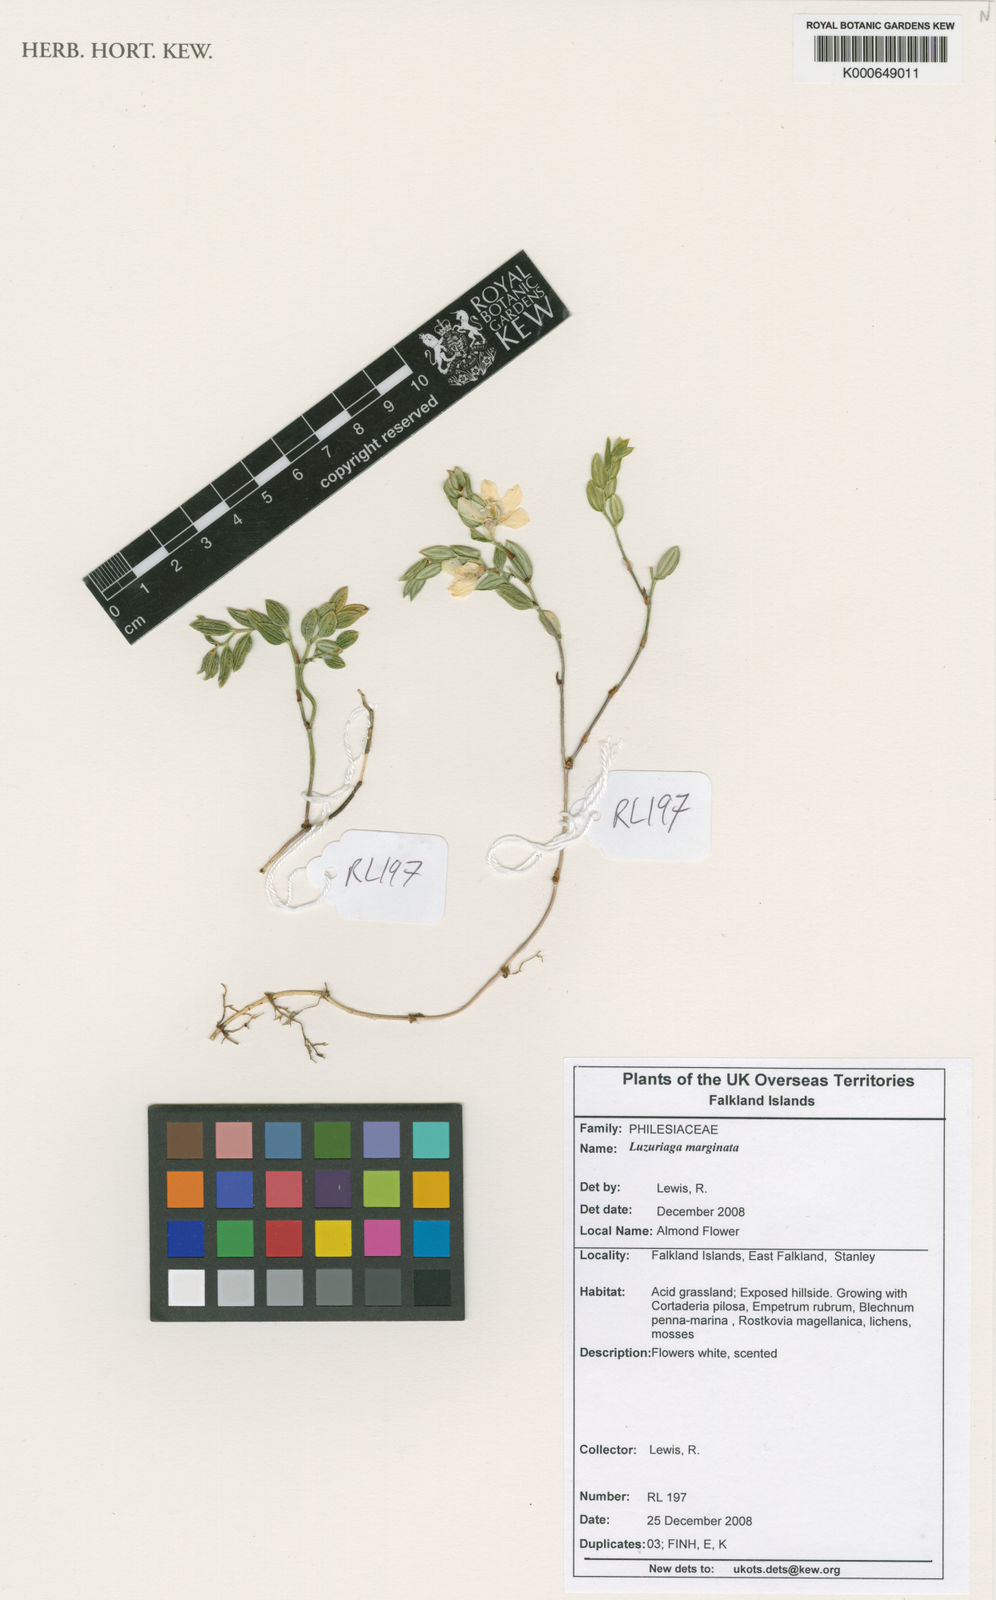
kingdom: Plantae
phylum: Tracheophyta
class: Liliopsida
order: Liliales
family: Alstroemeriaceae
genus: Luzuriaga
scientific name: Luzuriaga marginata
